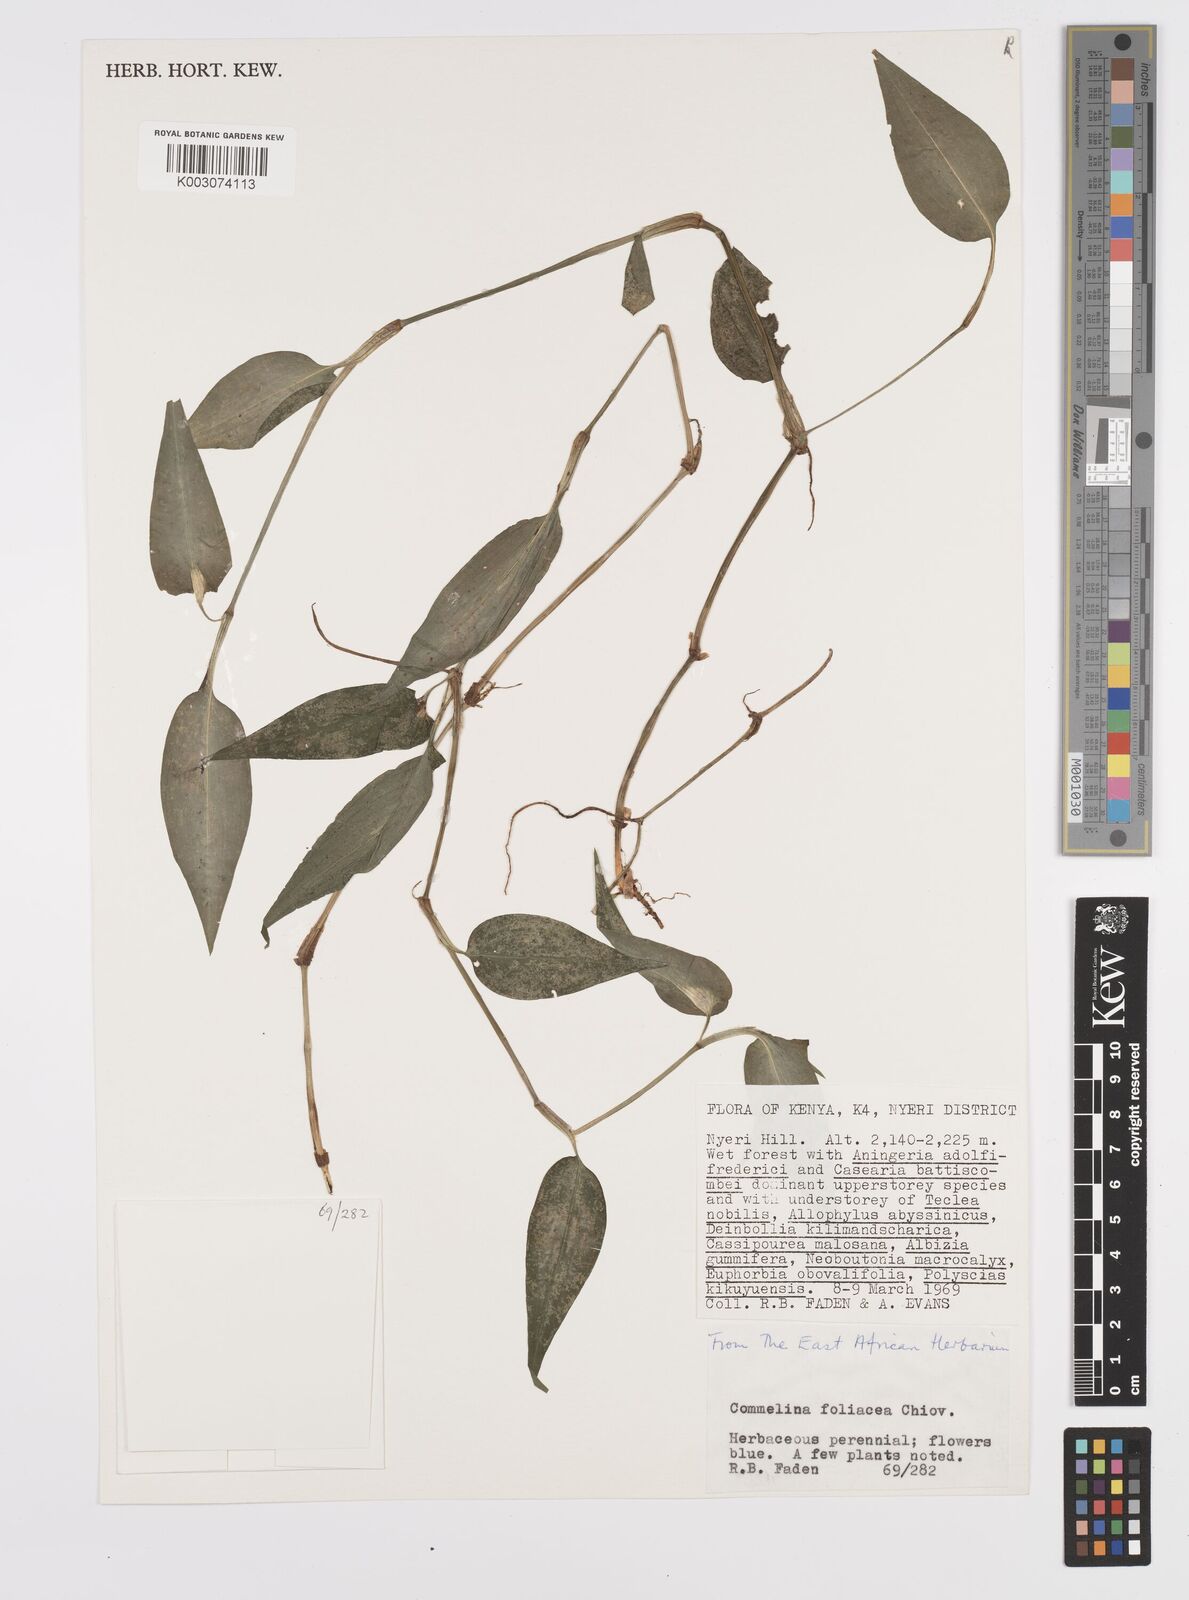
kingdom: Plantae
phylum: Tracheophyta
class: Liliopsida
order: Commelinales
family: Commelinaceae
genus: Commelina
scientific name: Commelina foliacea
